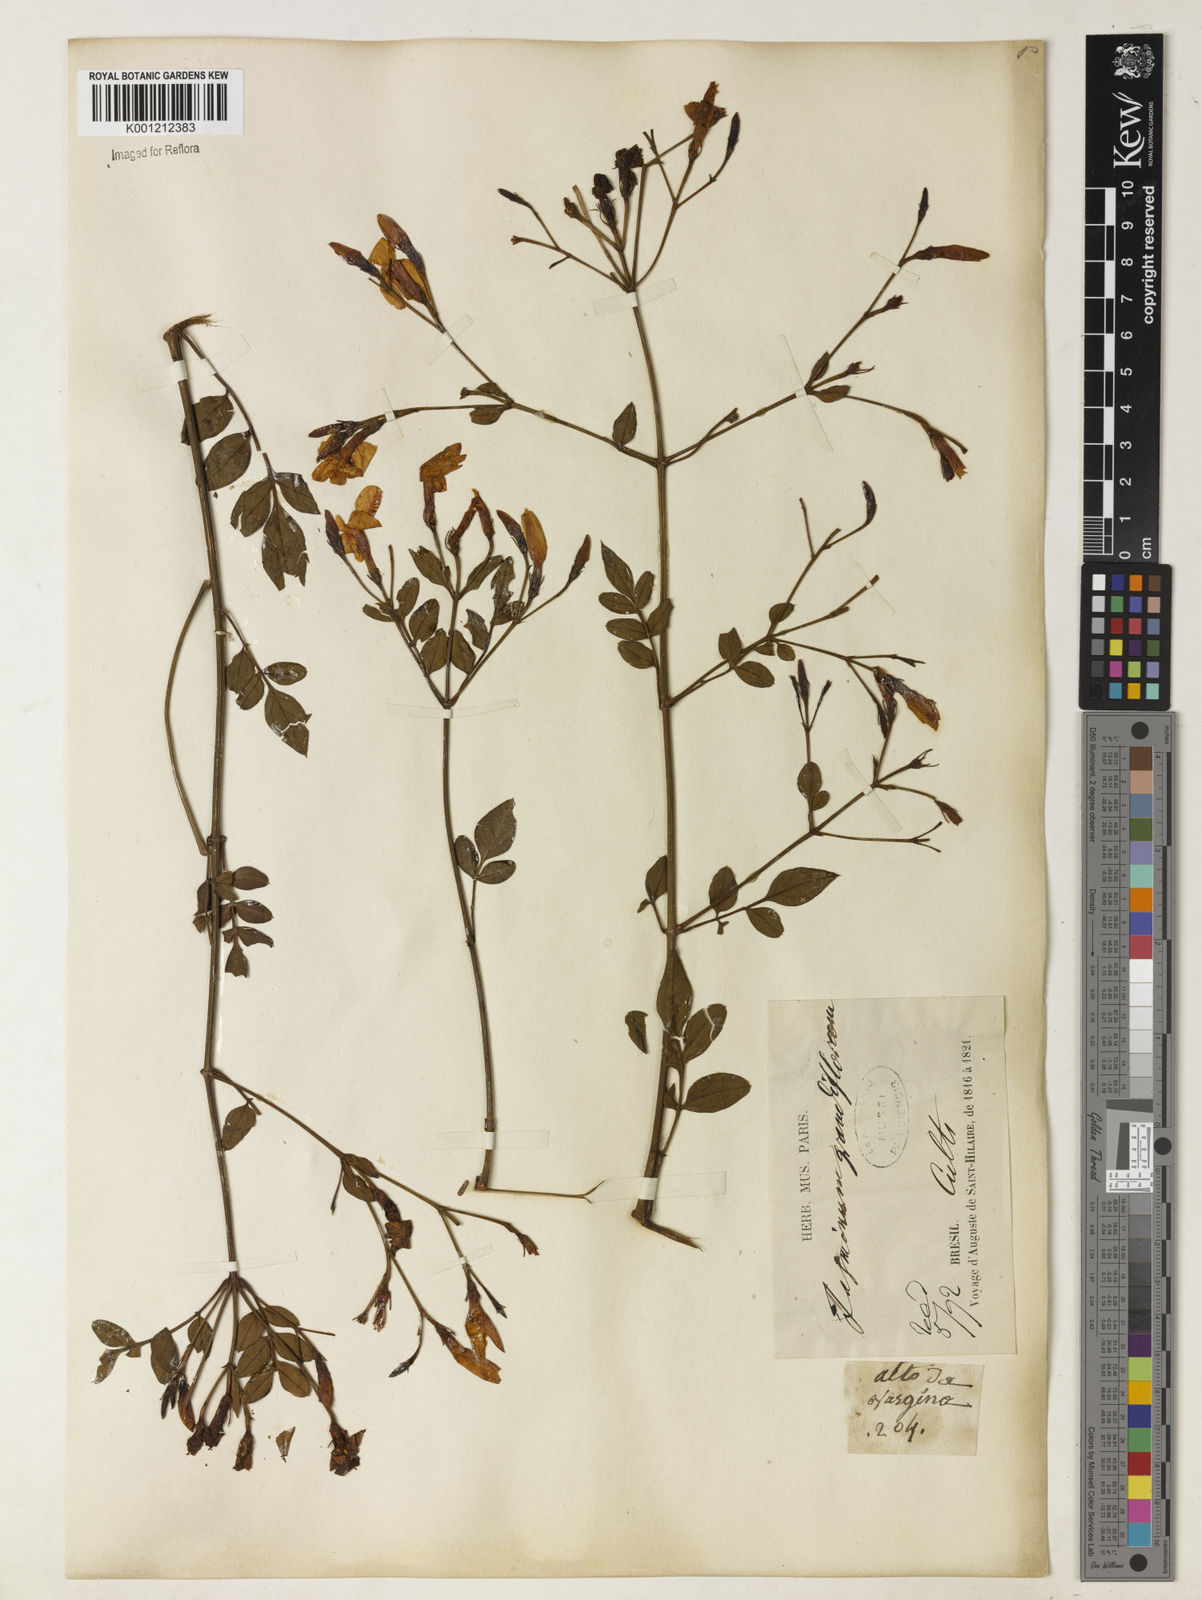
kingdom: Plantae
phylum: Tracheophyta
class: Magnoliopsida
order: Lamiales
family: Oleaceae
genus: Jasminum
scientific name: Jasminum grandiflorum
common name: Catalonian jasmine
